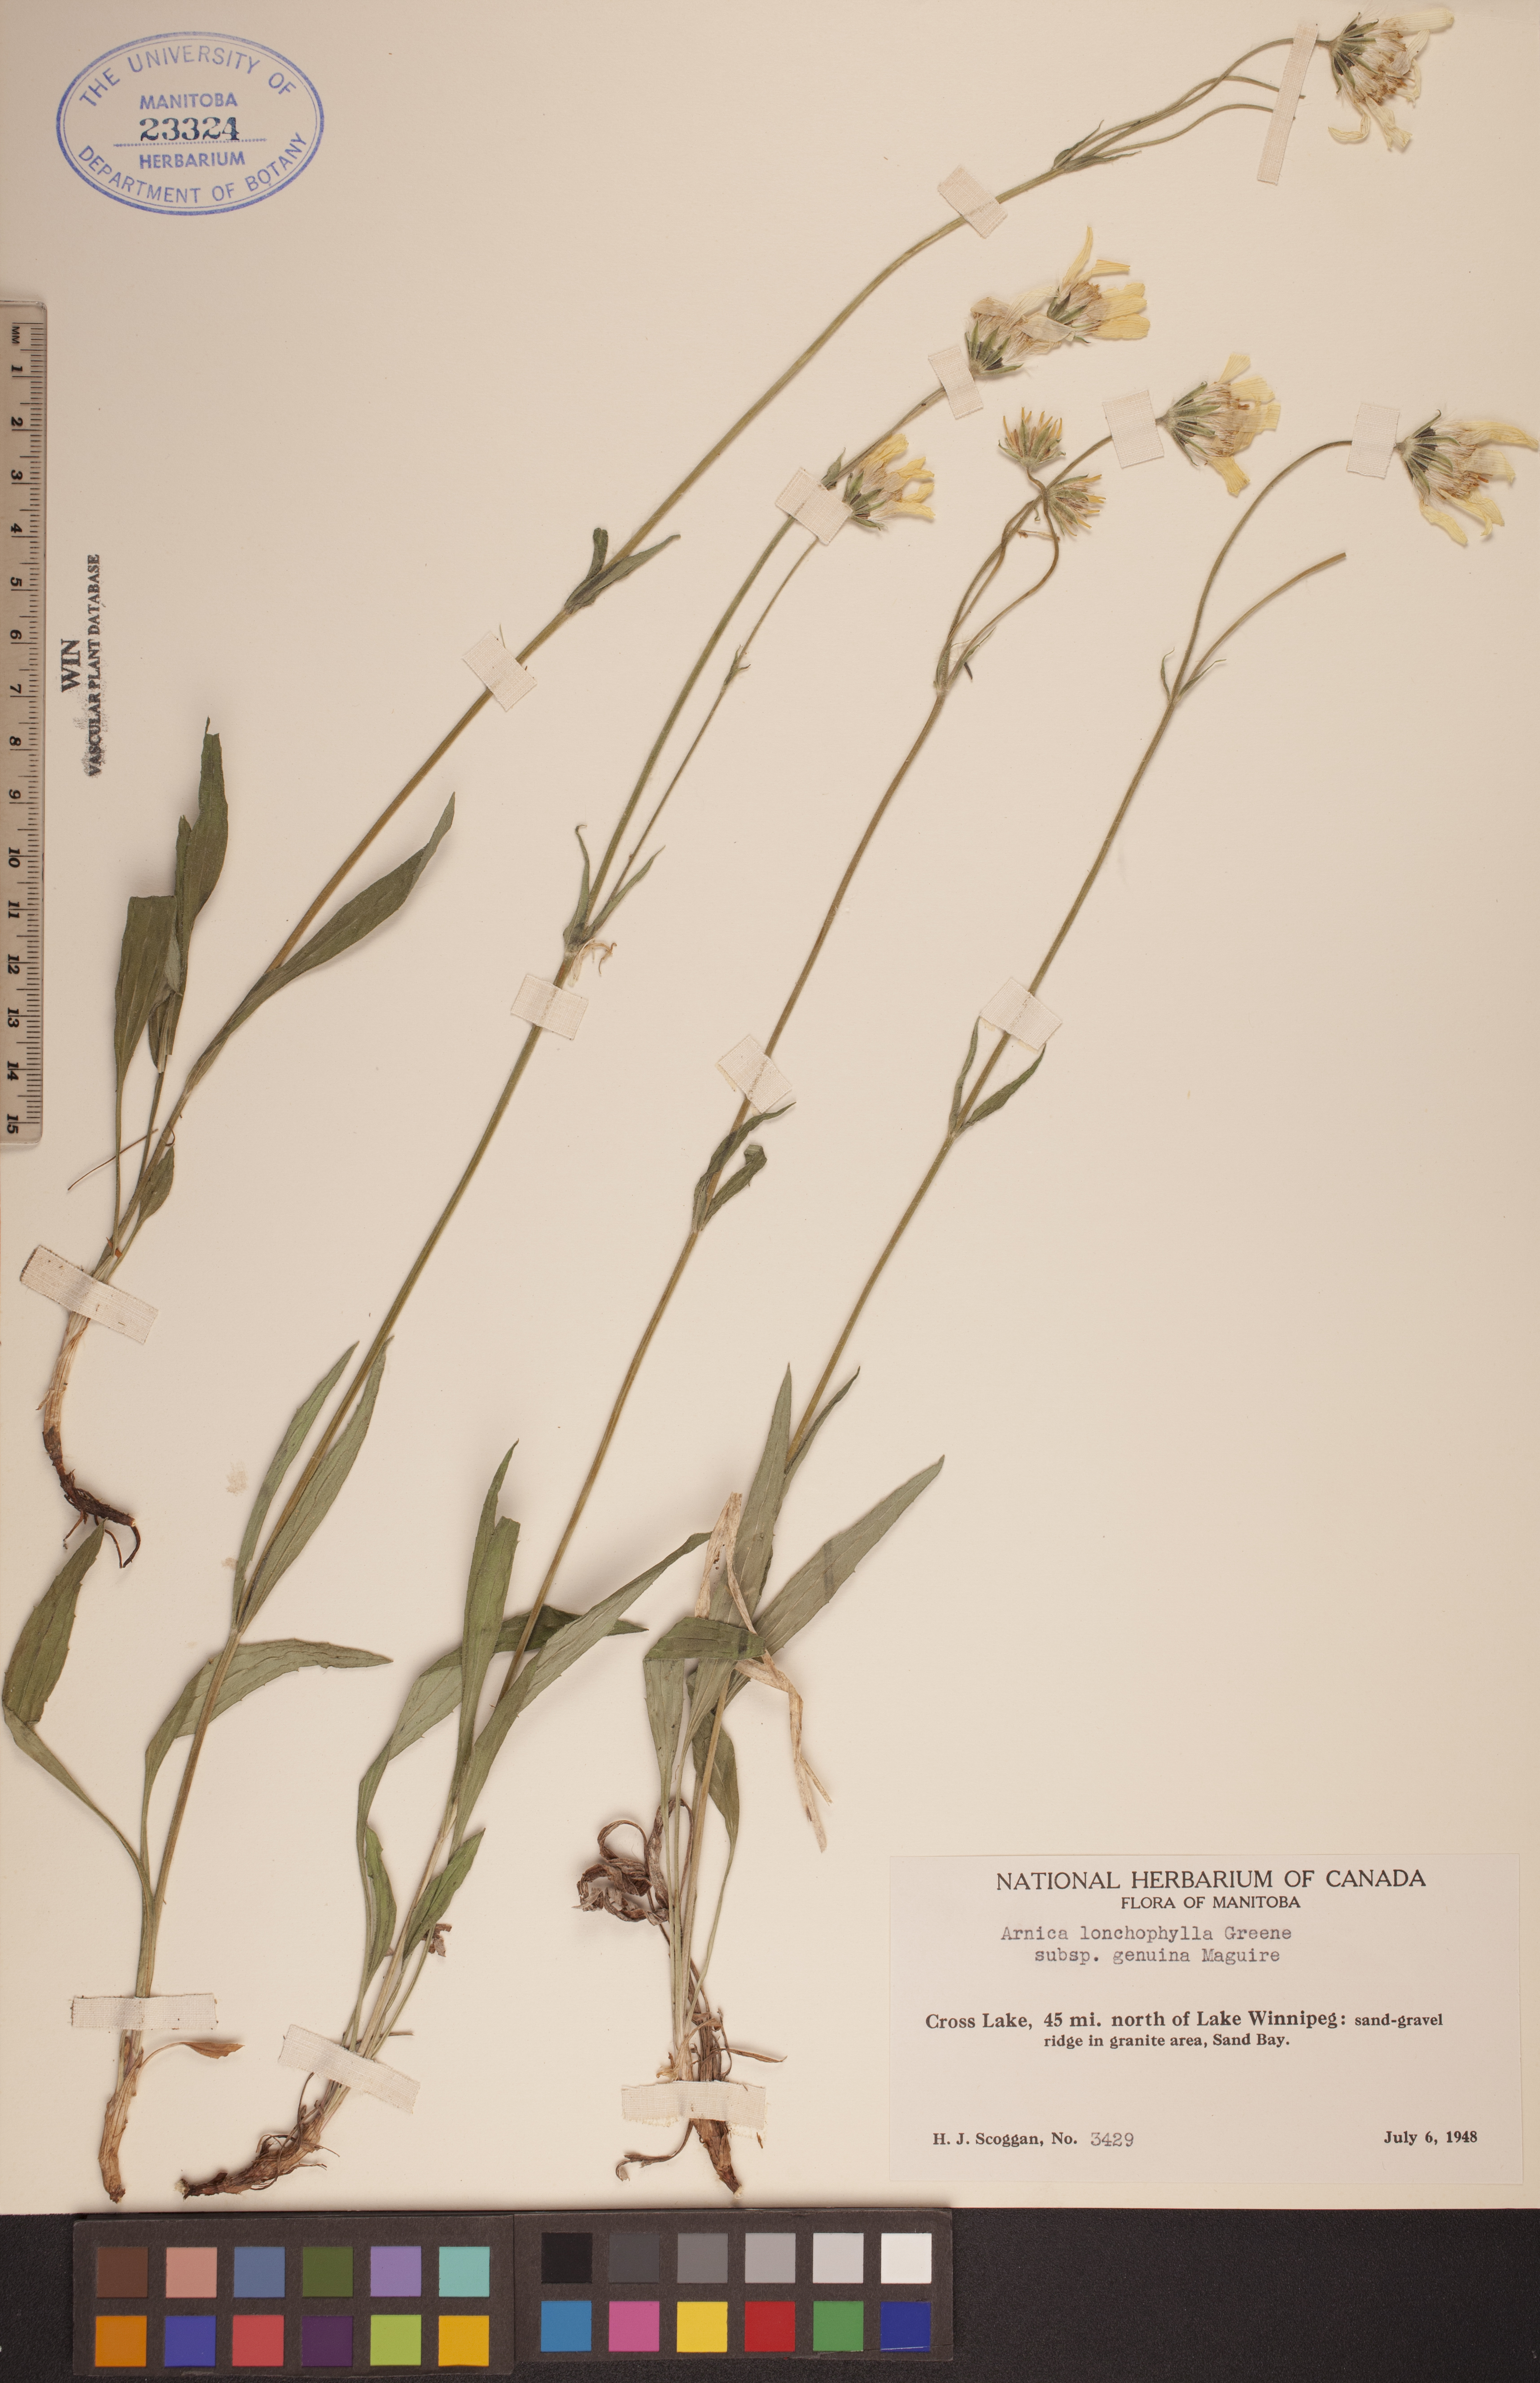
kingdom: Plantae
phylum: Tracheophyta
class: Magnoliopsida
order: Asterales
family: Asteraceae
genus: Arnica
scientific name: Arnica lonchophylla
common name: Northern arnica
